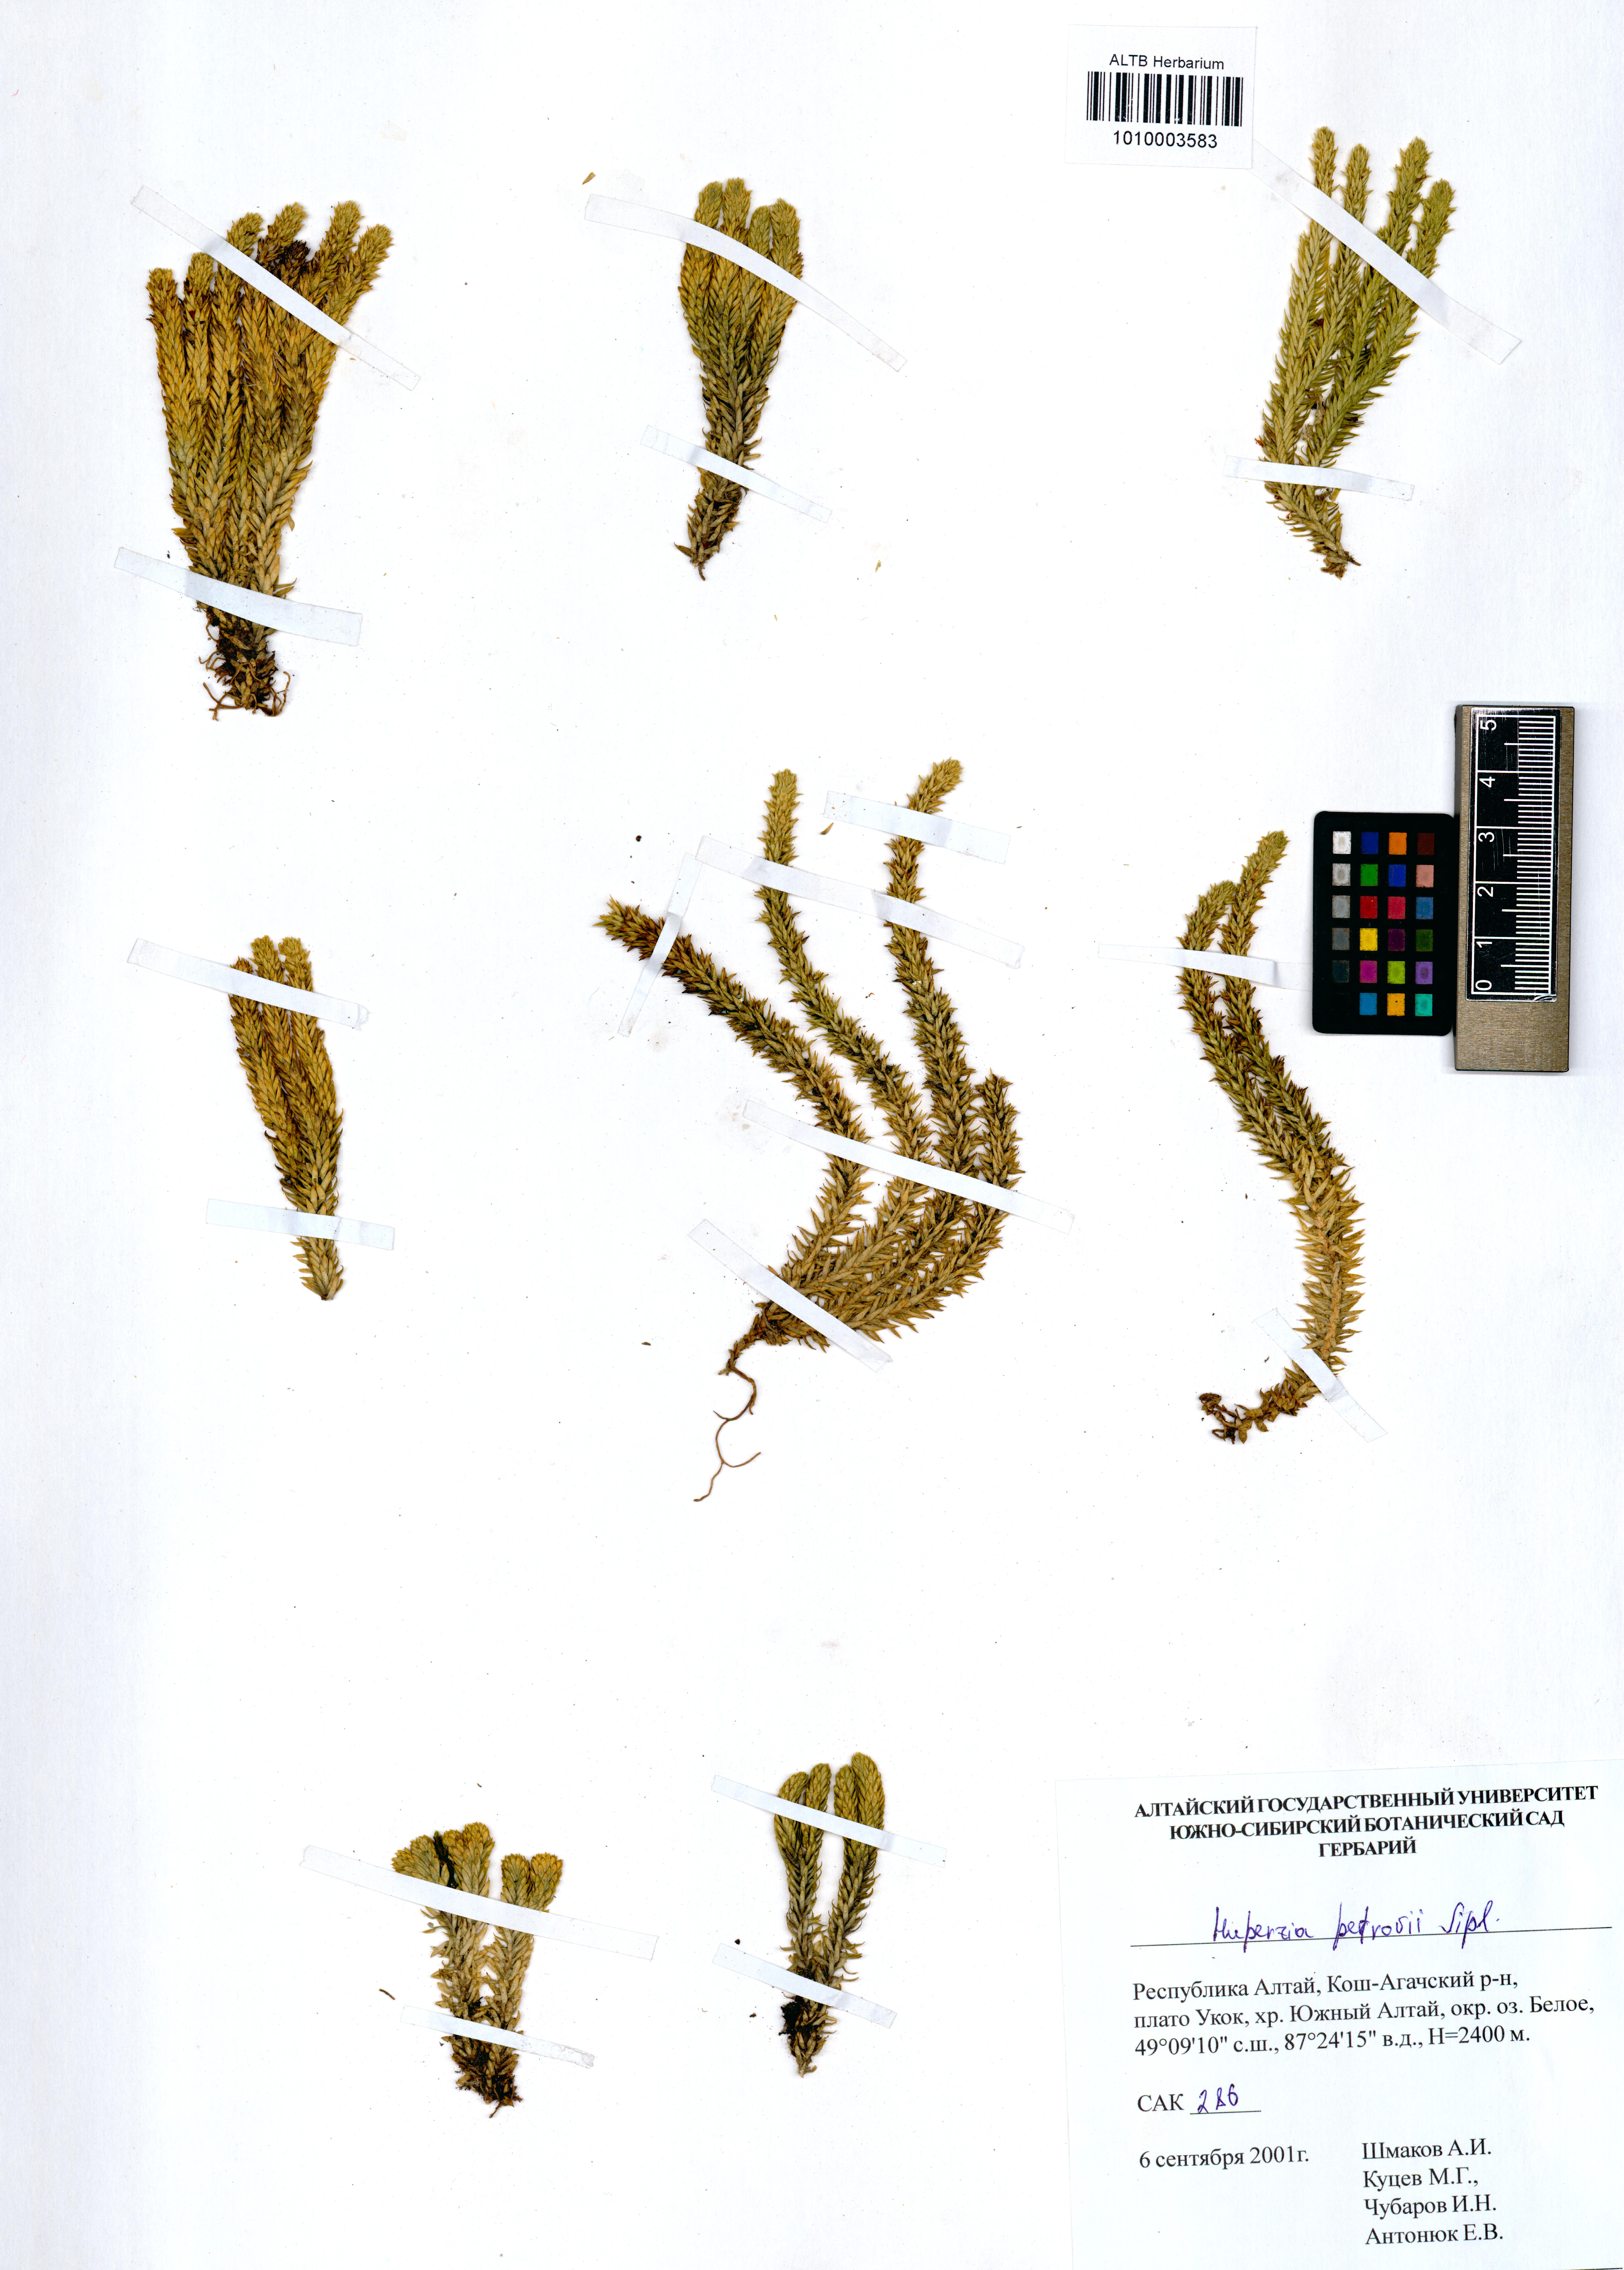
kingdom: Plantae
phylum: Tracheophyta
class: Lycopodiopsida
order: Lycopodiales
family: Lycopodiaceae
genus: Huperzia
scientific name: Huperzia selago
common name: Northern firmoss
